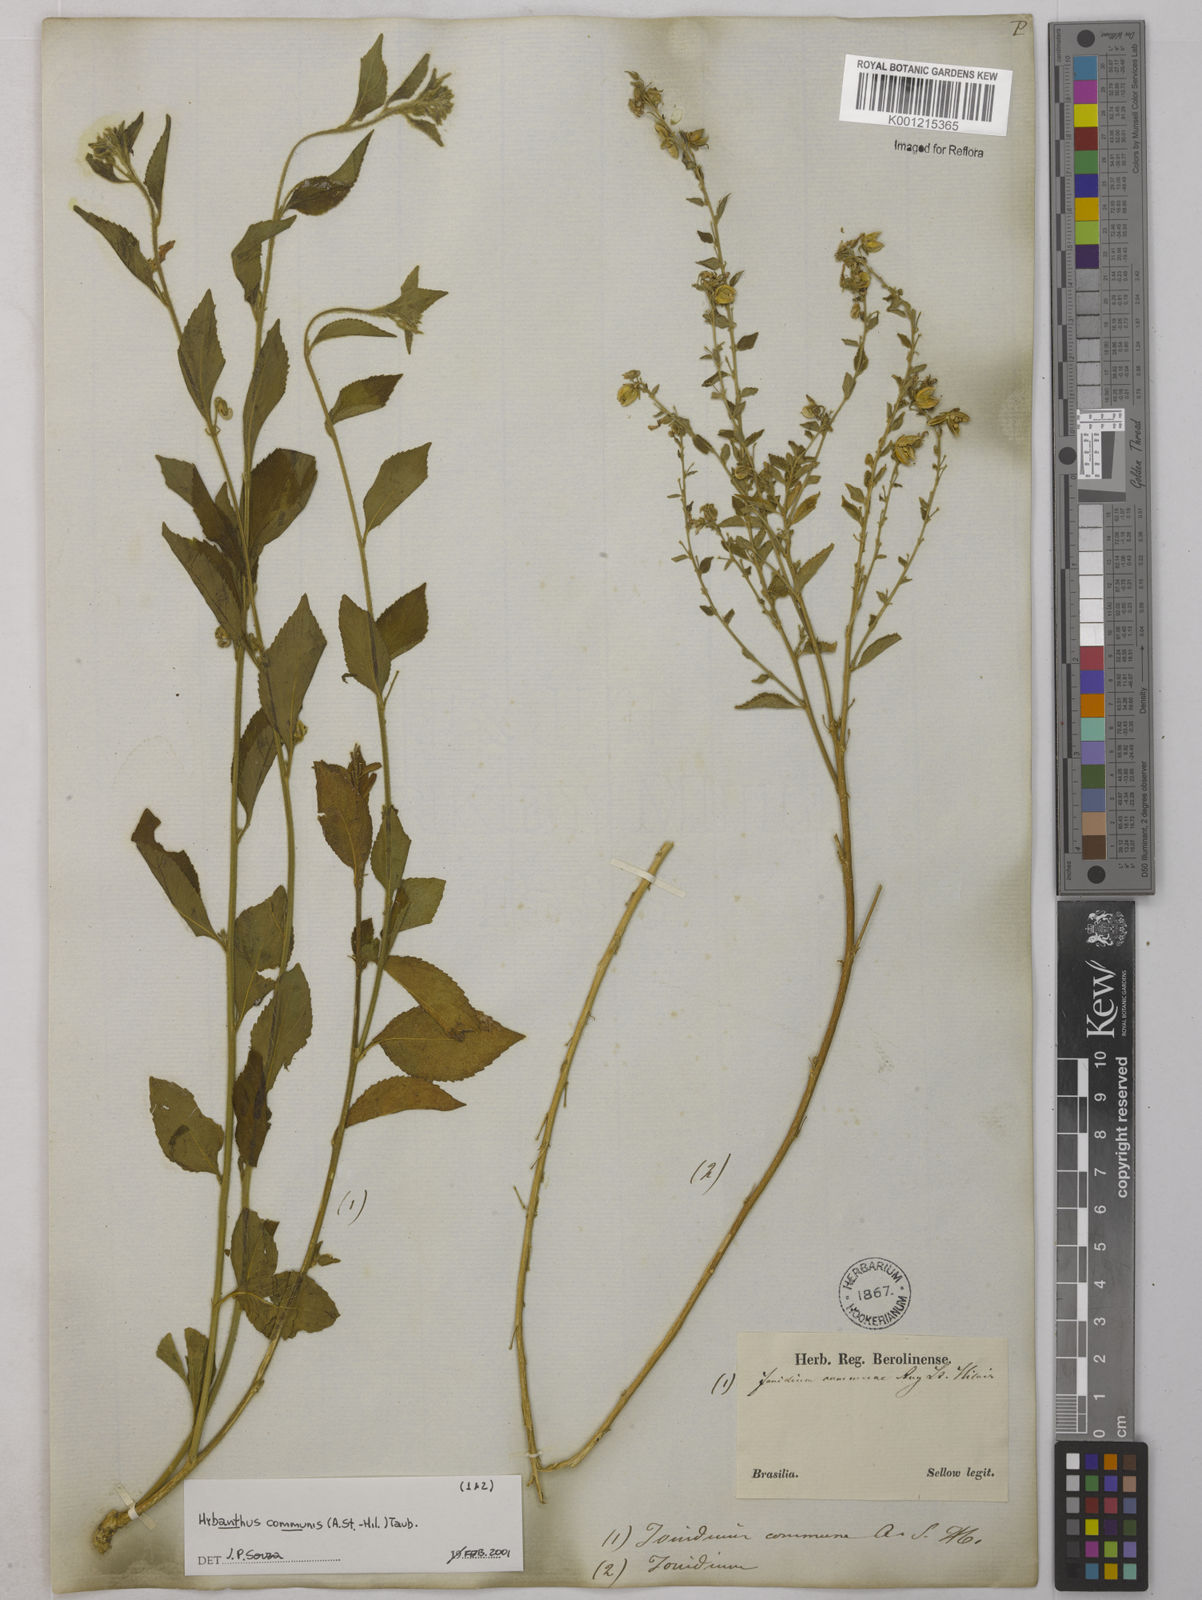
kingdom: Plantae
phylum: Tracheophyta
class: Magnoliopsida
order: Malpighiales
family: Violaceae
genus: Pombalia
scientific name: Pombalia communis
